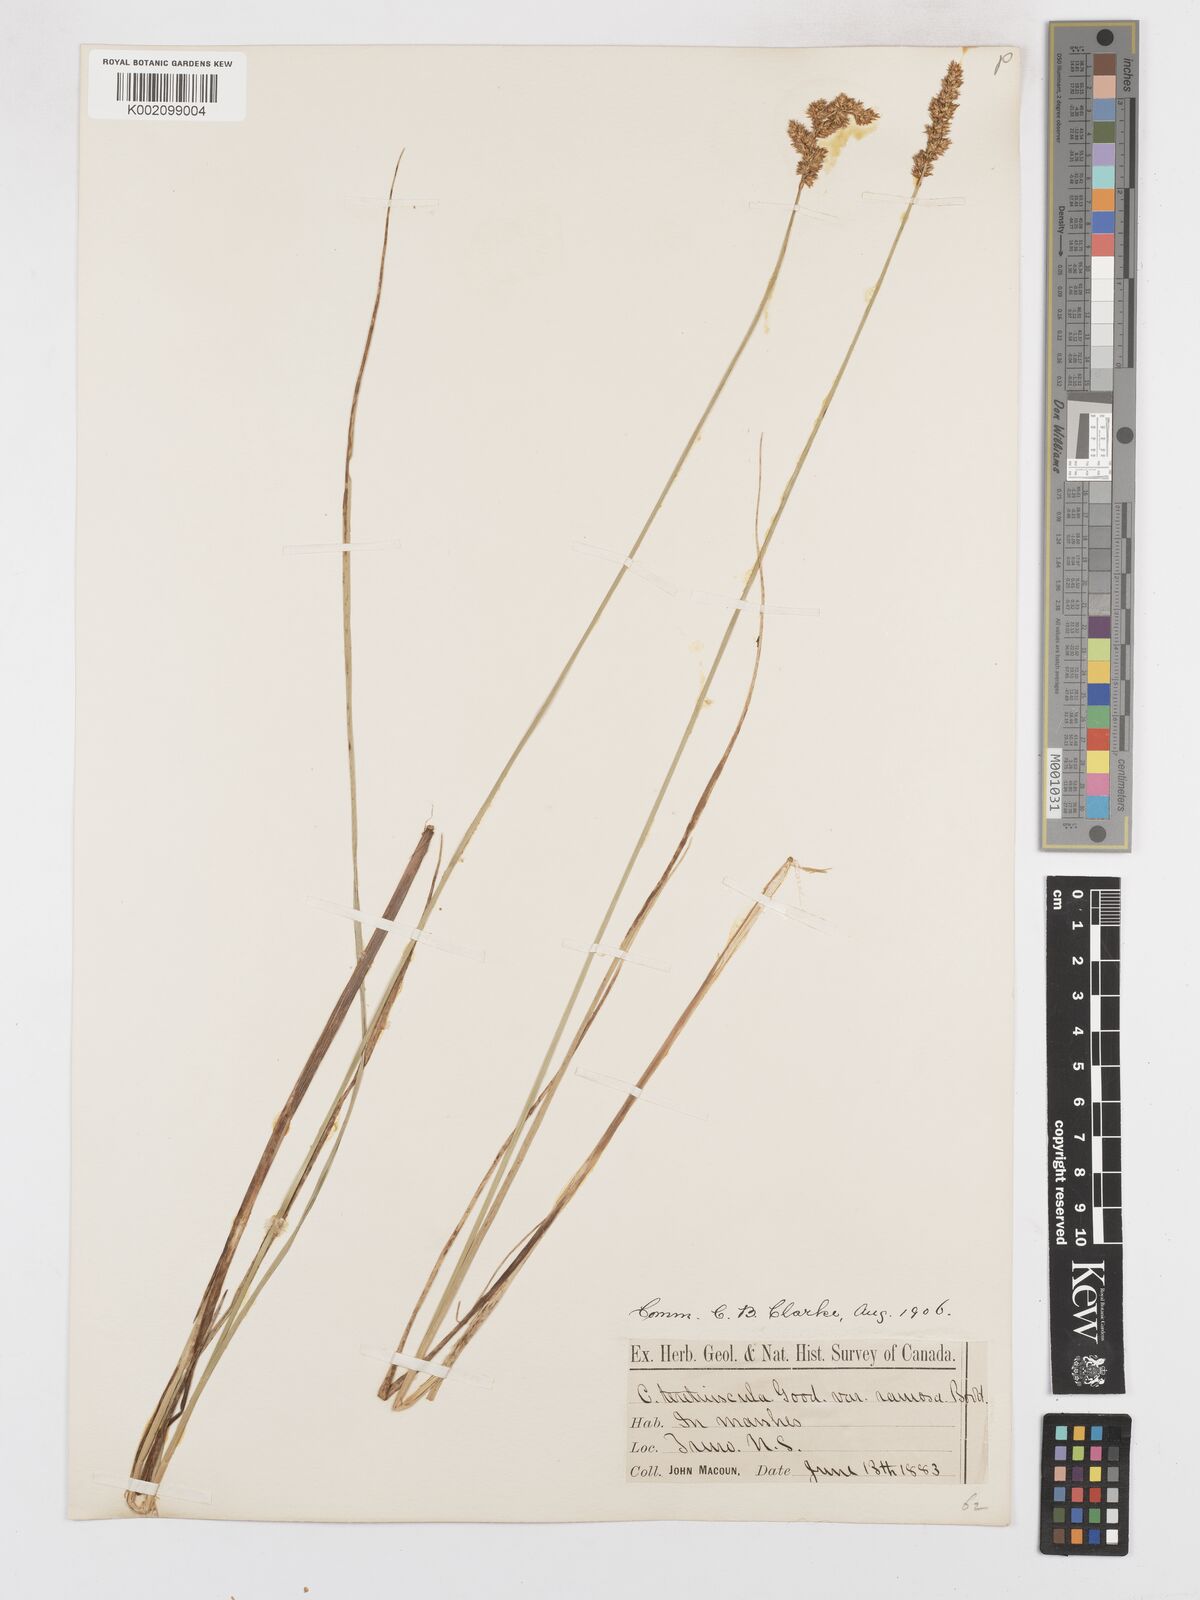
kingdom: Plantae
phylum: Tracheophyta
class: Liliopsida
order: Poales
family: Cyperaceae
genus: Carex
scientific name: Carex diandra
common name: Lesser tussock-sedge
